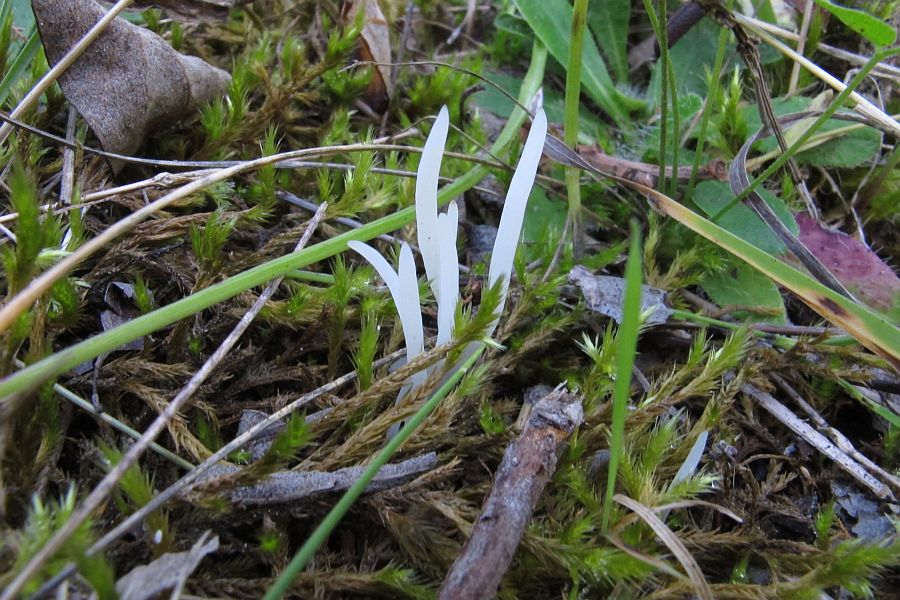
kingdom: Fungi
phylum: Basidiomycota
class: Agaricomycetes
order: Agaricales
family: Clavariaceae
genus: Clavaria
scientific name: Clavaria falcata
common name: hvid køllesvamp
